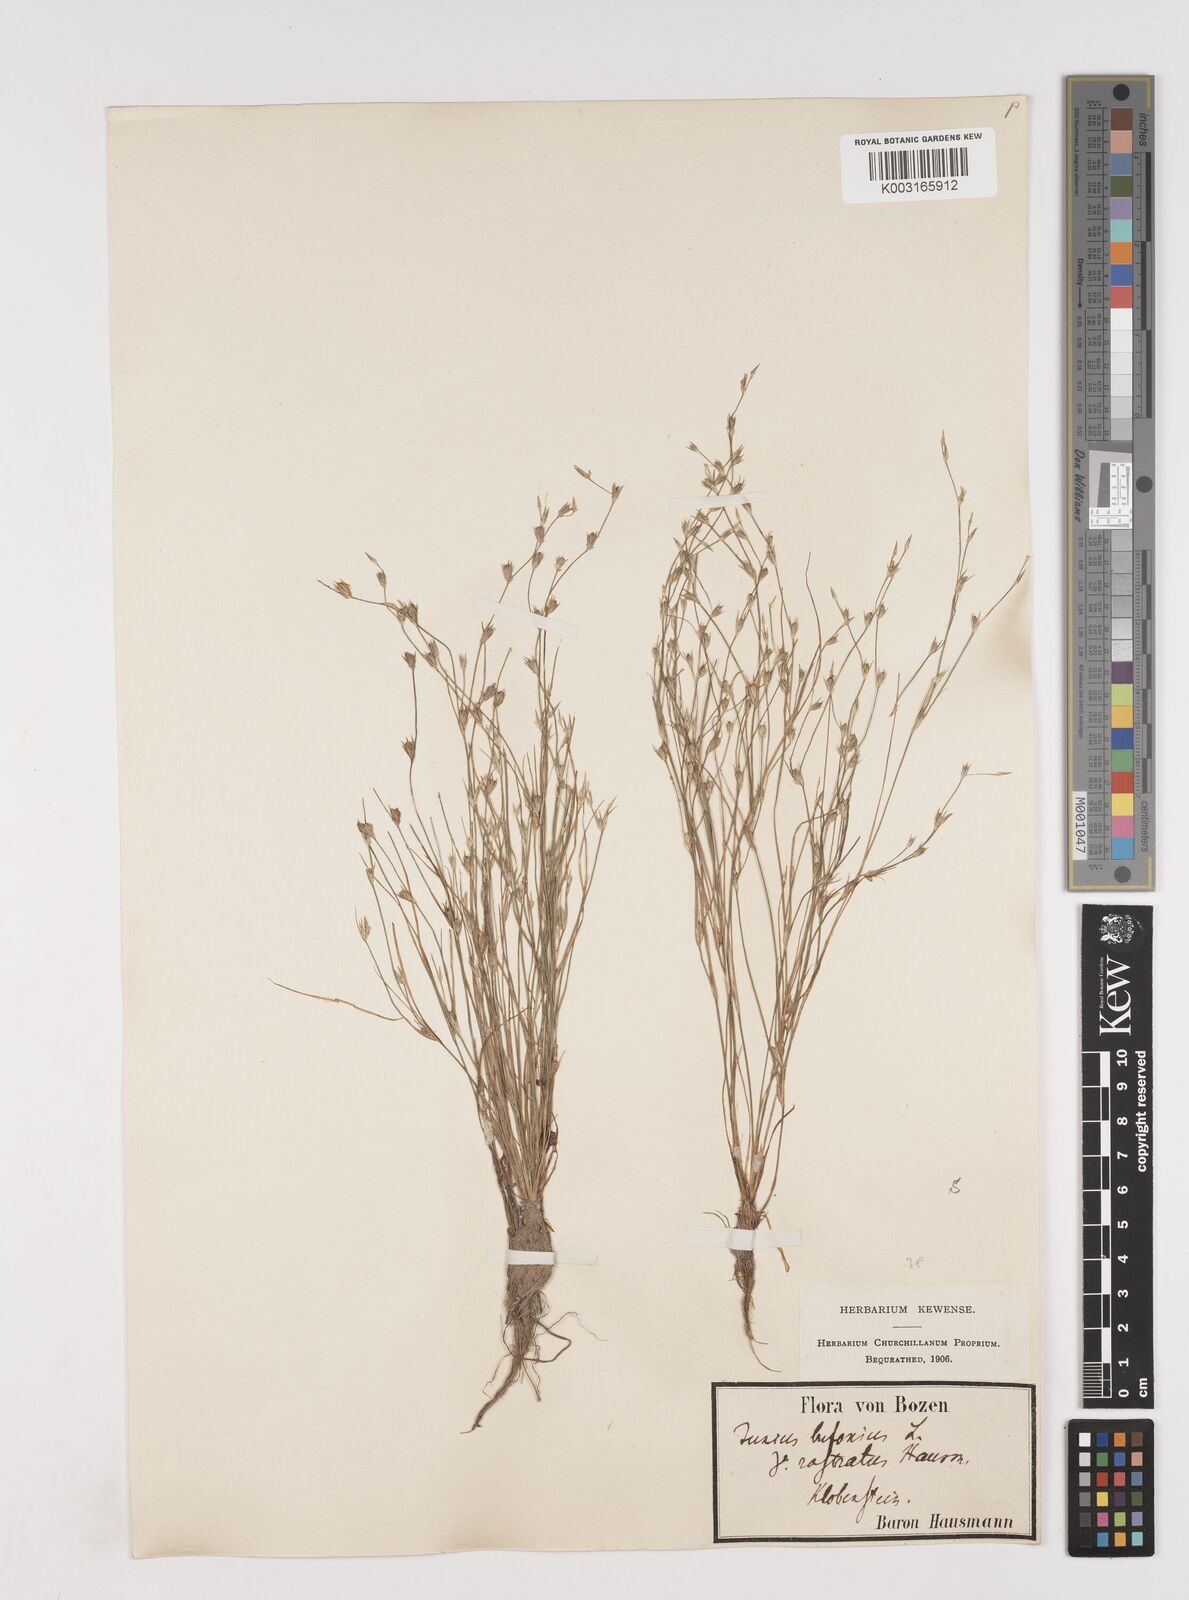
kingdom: Plantae
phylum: Tracheophyta
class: Liliopsida
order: Poales
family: Juncaceae
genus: Juncus
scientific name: Juncus bufonius
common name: Toad rush
